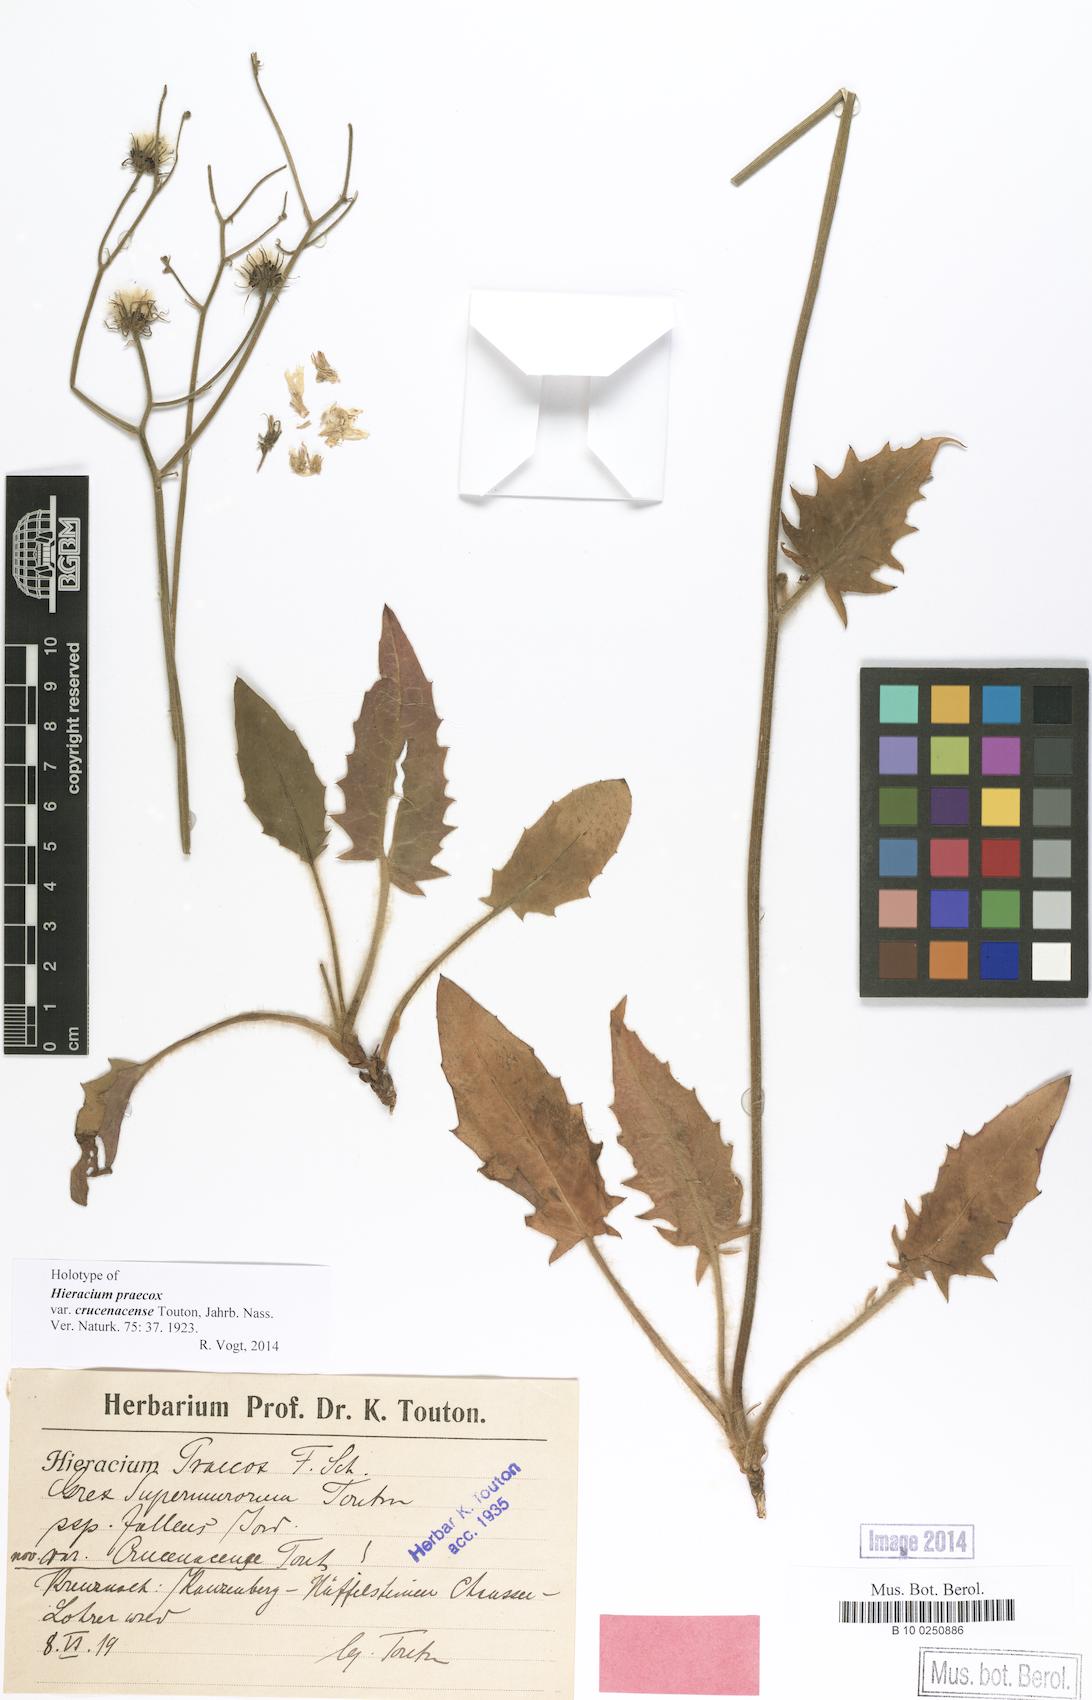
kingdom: Plantae
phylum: Tracheophyta
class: Magnoliopsida
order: Asterales
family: Asteraceae
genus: Hieracium
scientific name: Hieracium glaucinum
